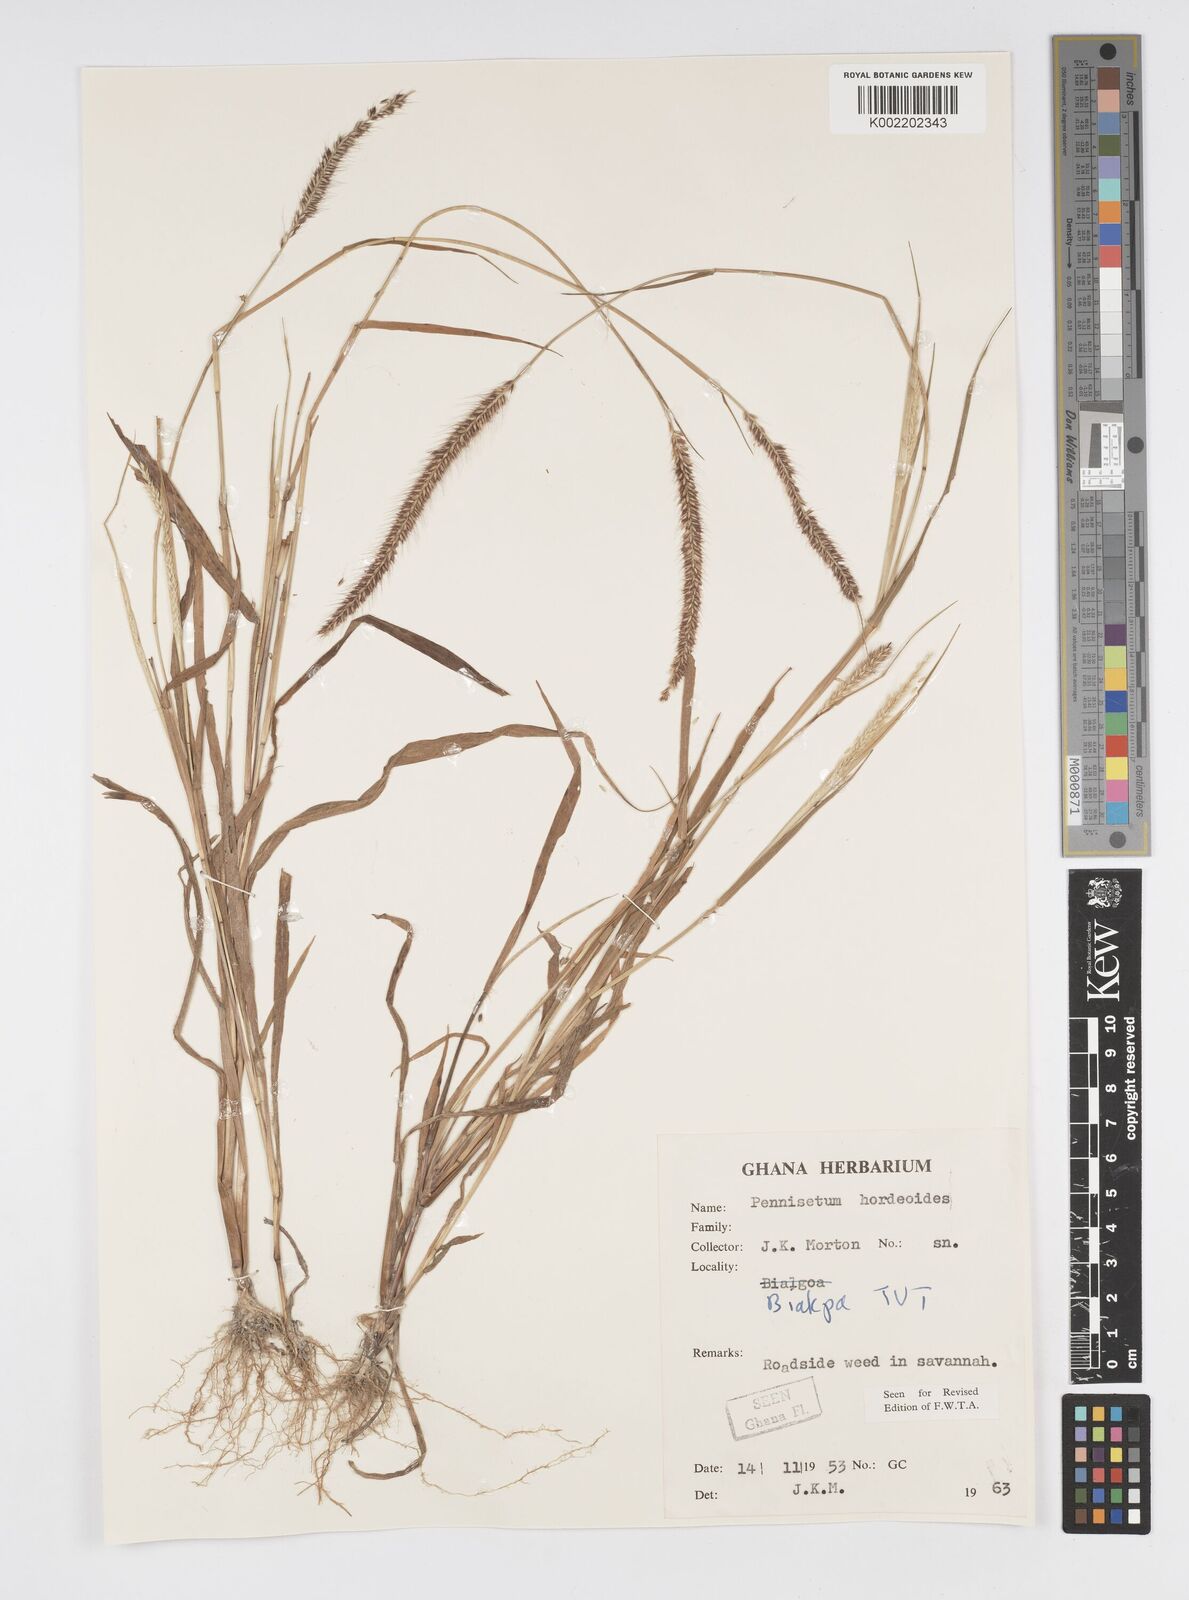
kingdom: Plantae
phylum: Tracheophyta
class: Liliopsida
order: Poales
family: Poaceae
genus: Cenchrus
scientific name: Cenchrus hordeoides
